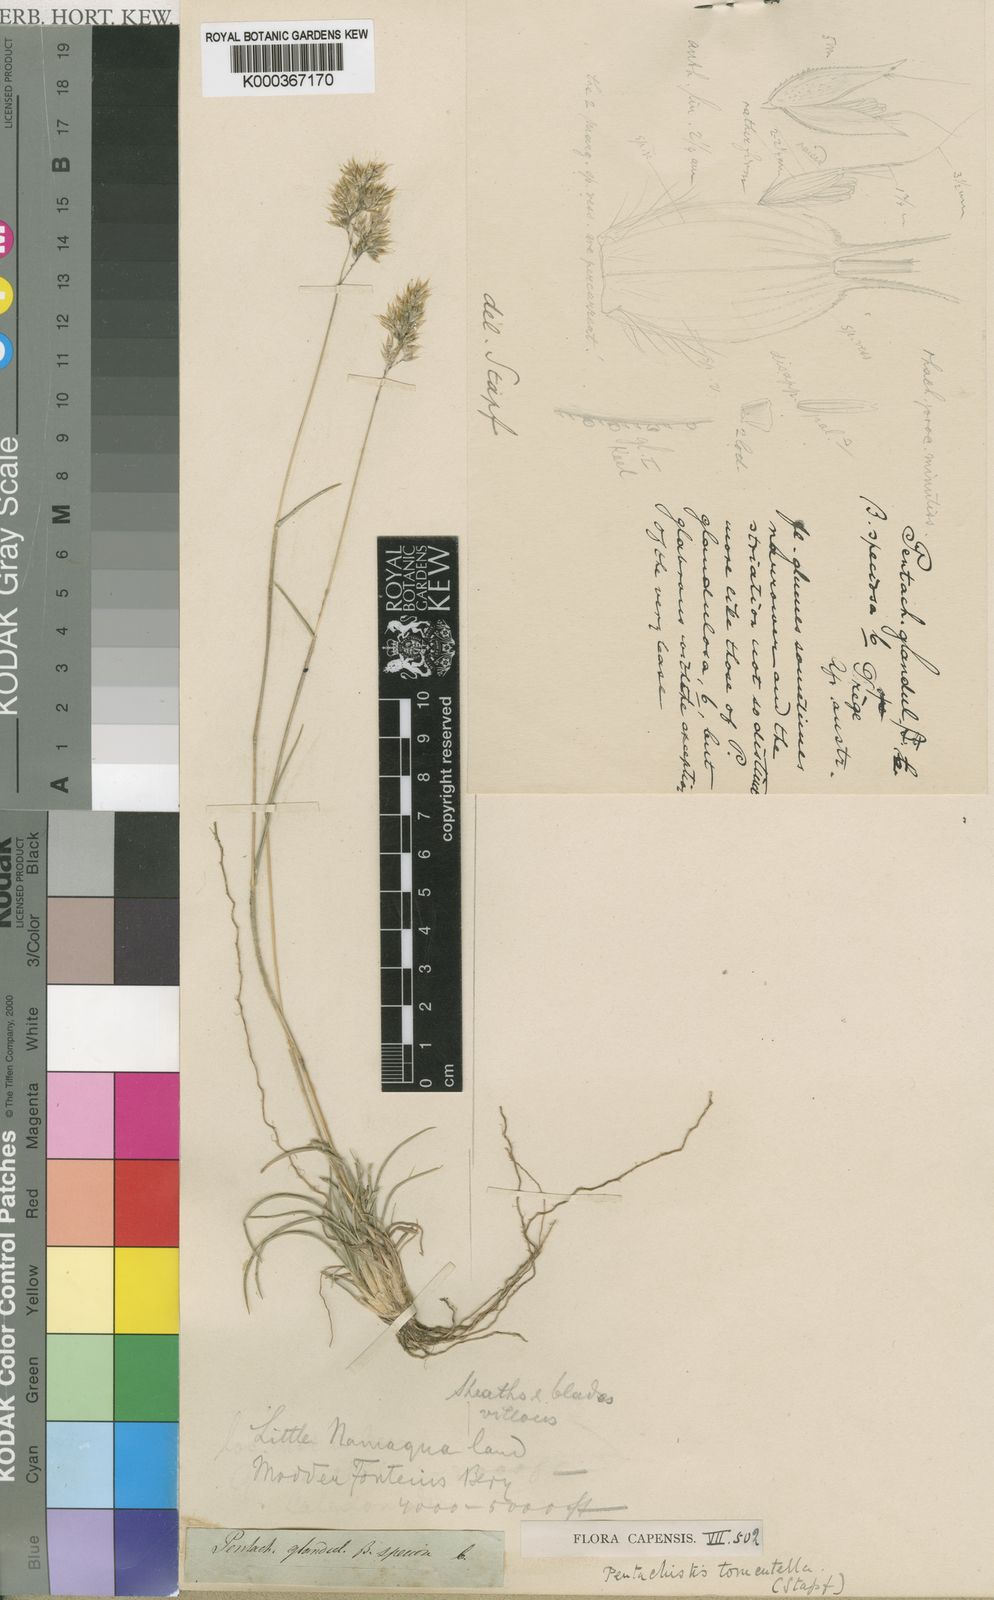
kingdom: Plantae
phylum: Tracheophyta
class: Liliopsida
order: Poales
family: Poaceae
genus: Pentameris
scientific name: Pentameris tomentella
